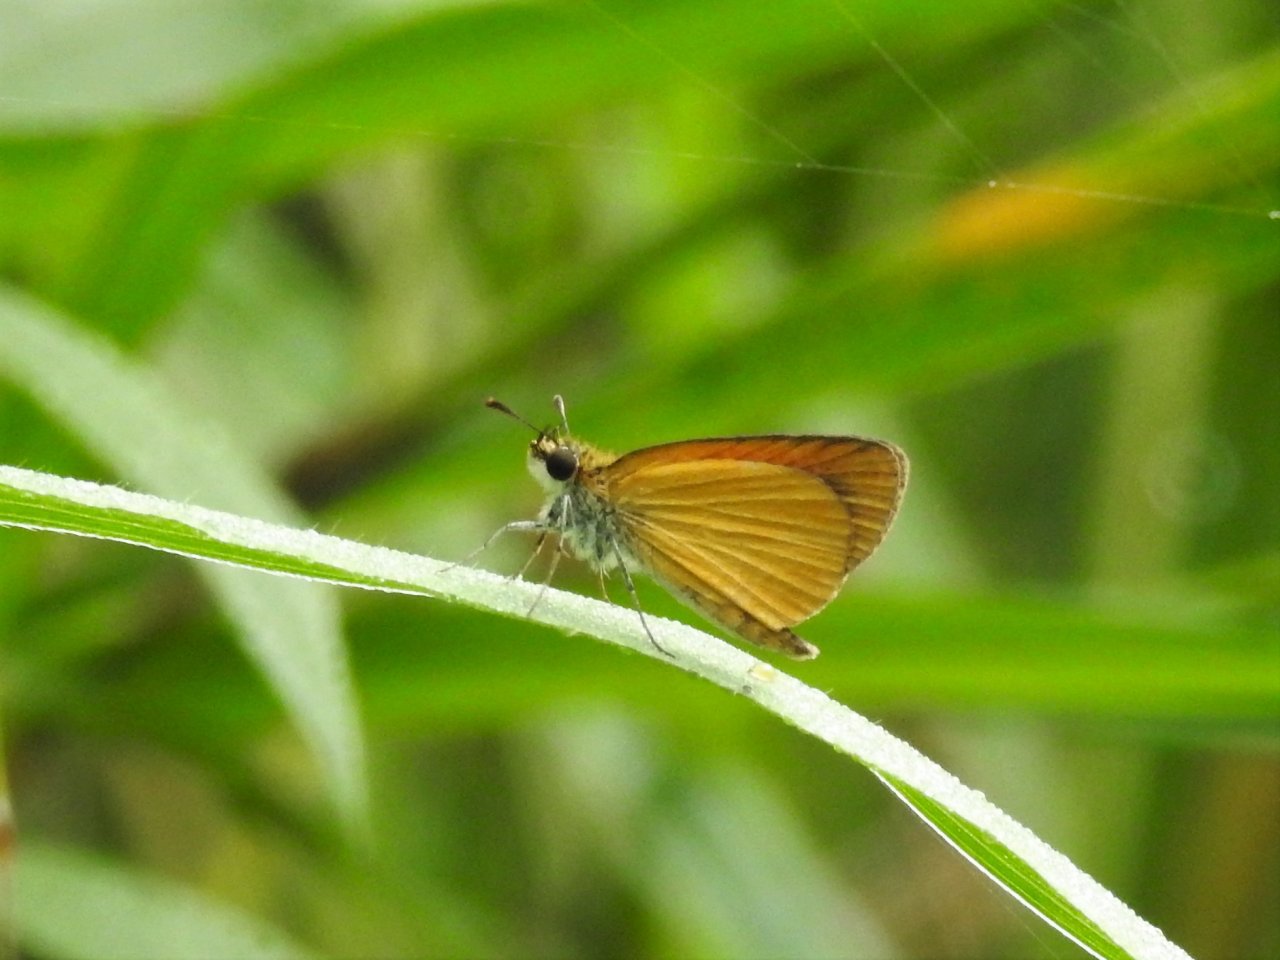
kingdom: Animalia
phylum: Arthropoda
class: Insecta
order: Lepidoptera
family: Hesperiidae
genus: Ancyloxypha
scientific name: Ancyloxypha numitor
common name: Least Skipper
